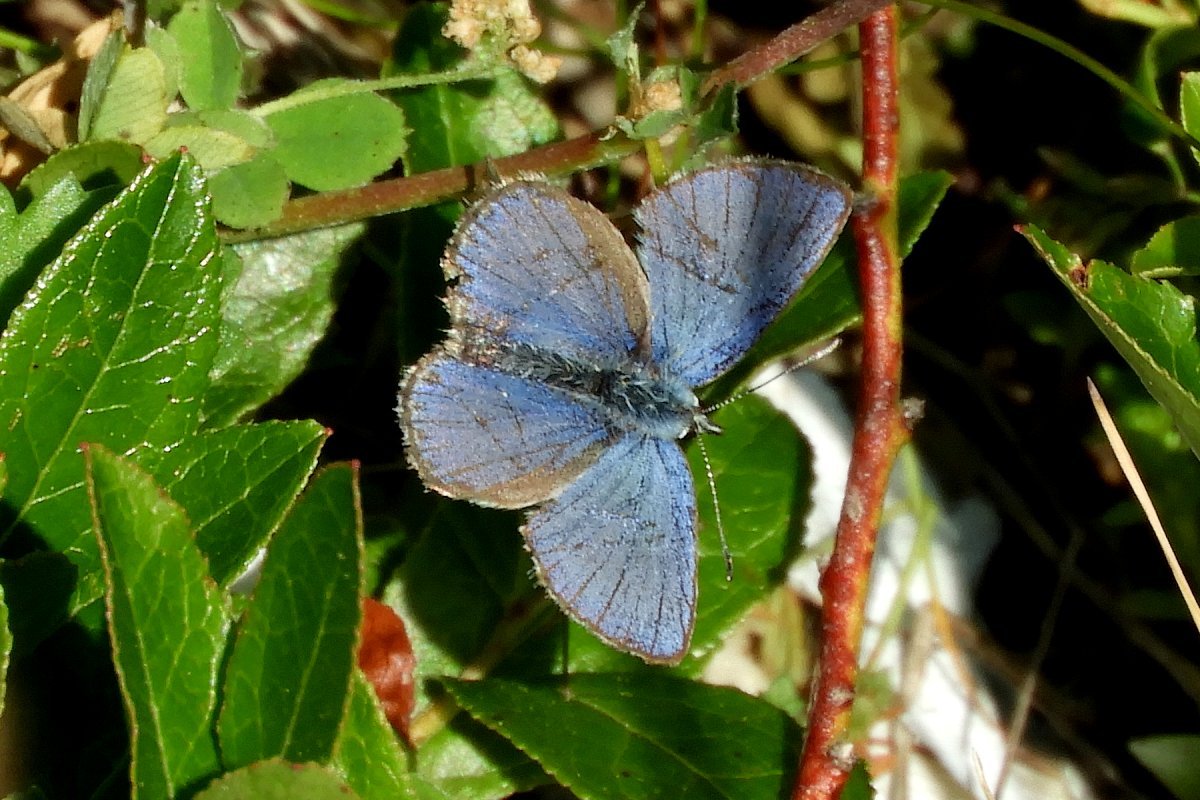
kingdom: Animalia
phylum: Arthropoda
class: Insecta
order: Lepidoptera
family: Lycaenidae
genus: Lycaeides
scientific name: Lycaeides idas
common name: Northern Blue
